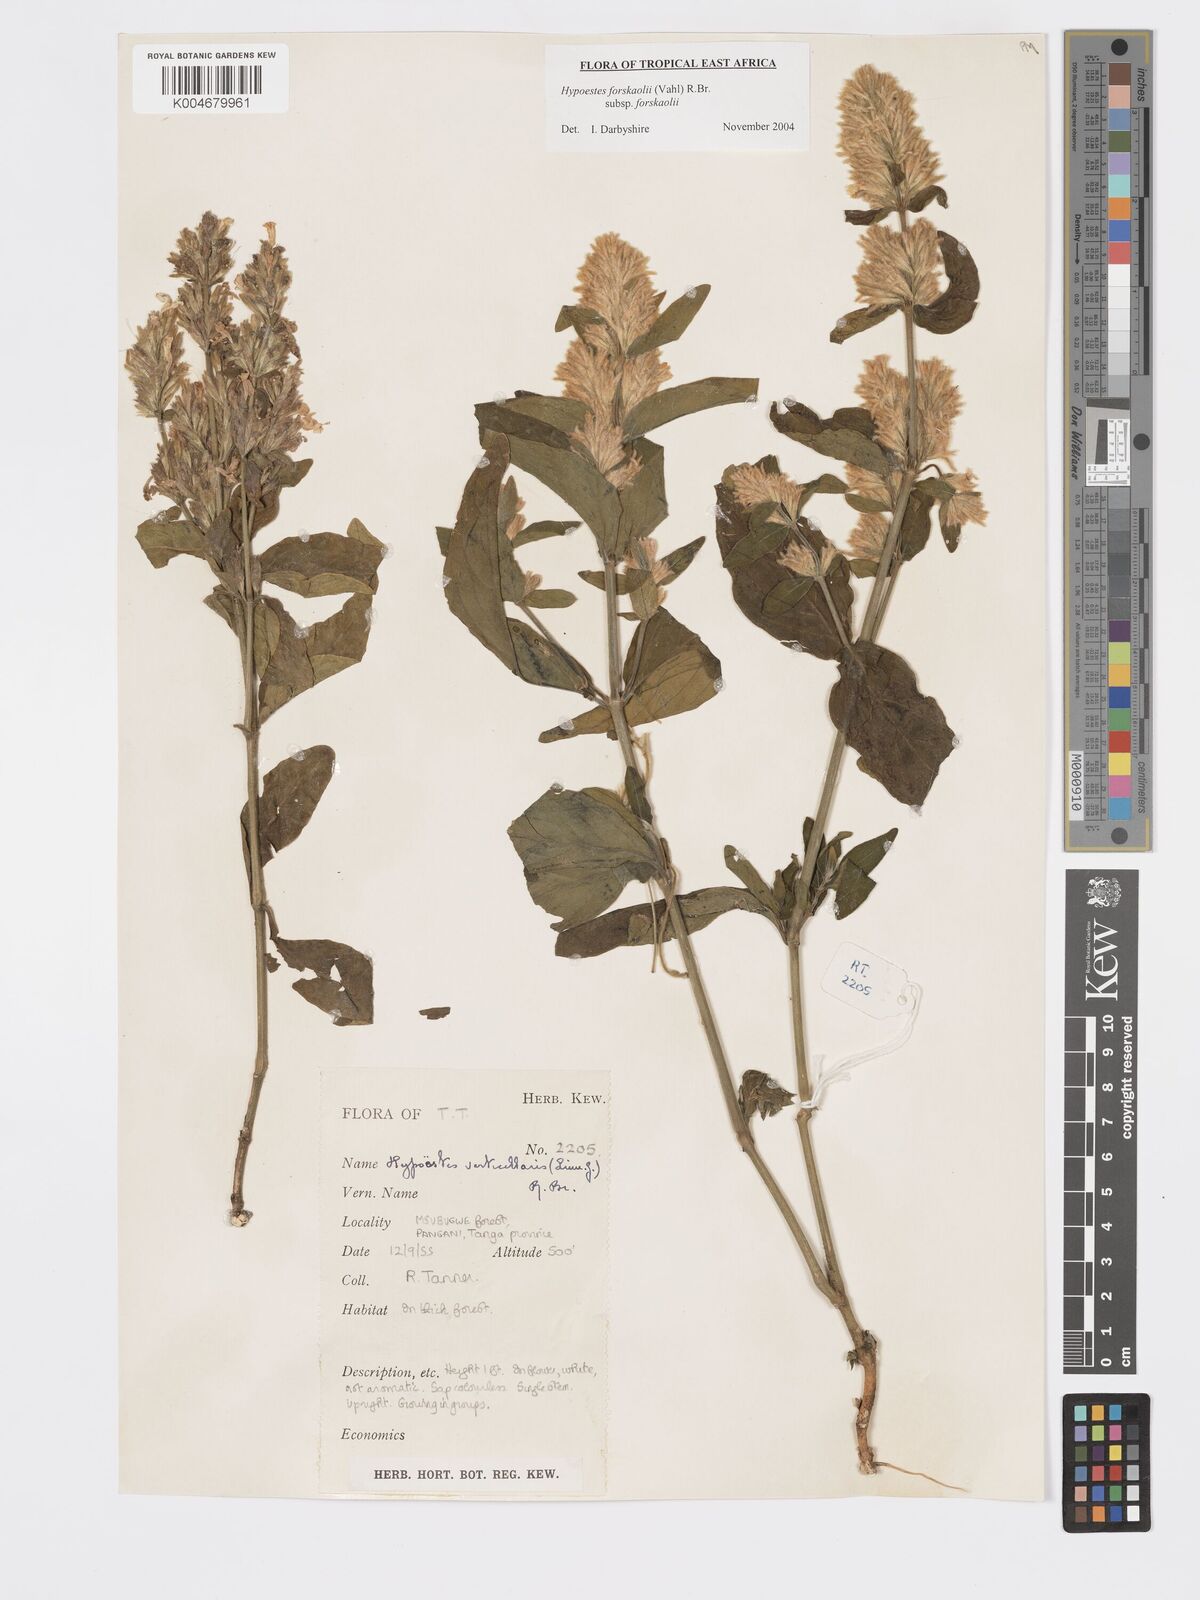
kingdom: Plantae
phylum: Tracheophyta
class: Magnoliopsida
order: Lamiales
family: Acanthaceae
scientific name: Acanthaceae
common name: Acanthaceae
